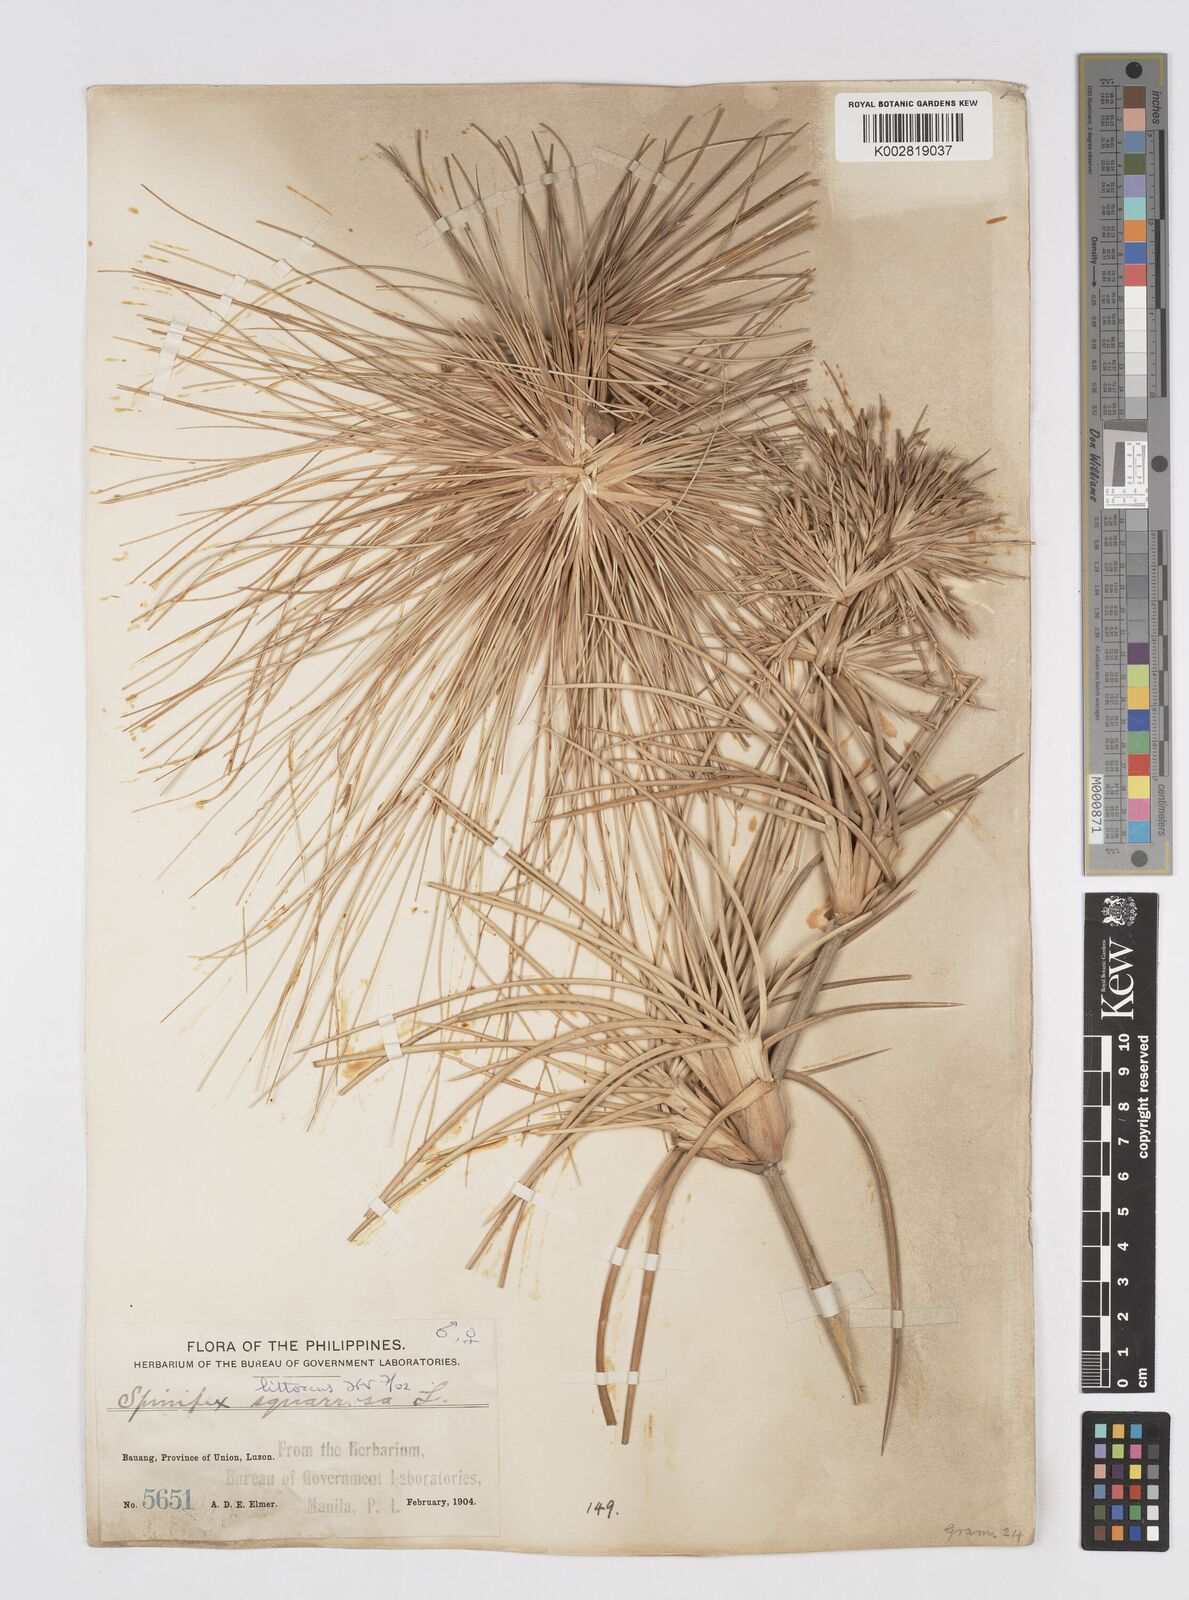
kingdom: Plantae
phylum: Tracheophyta
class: Liliopsida
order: Poales
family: Poaceae
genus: Spinifex
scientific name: Spinifex littoreus
